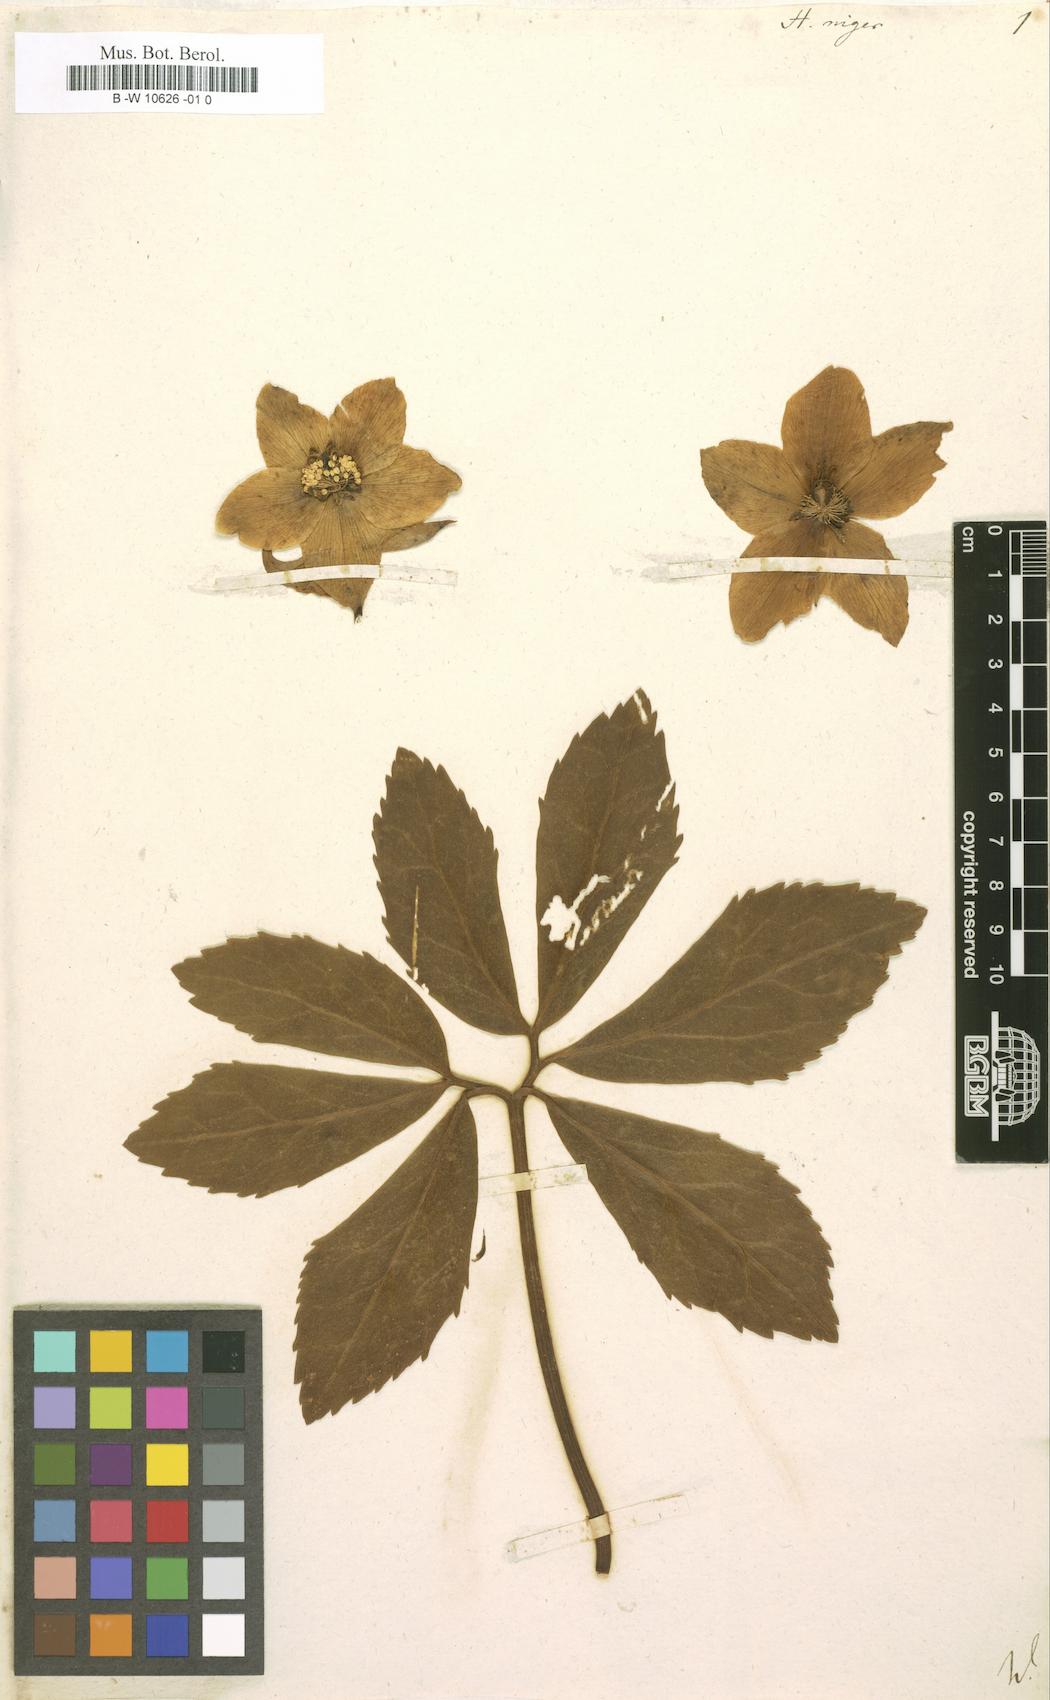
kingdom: Plantae
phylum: Tracheophyta
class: Magnoliopsida
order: Ranunculales
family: Ranunculaceae
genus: Helleborus
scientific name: Helleborus niger
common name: Black hellebore
